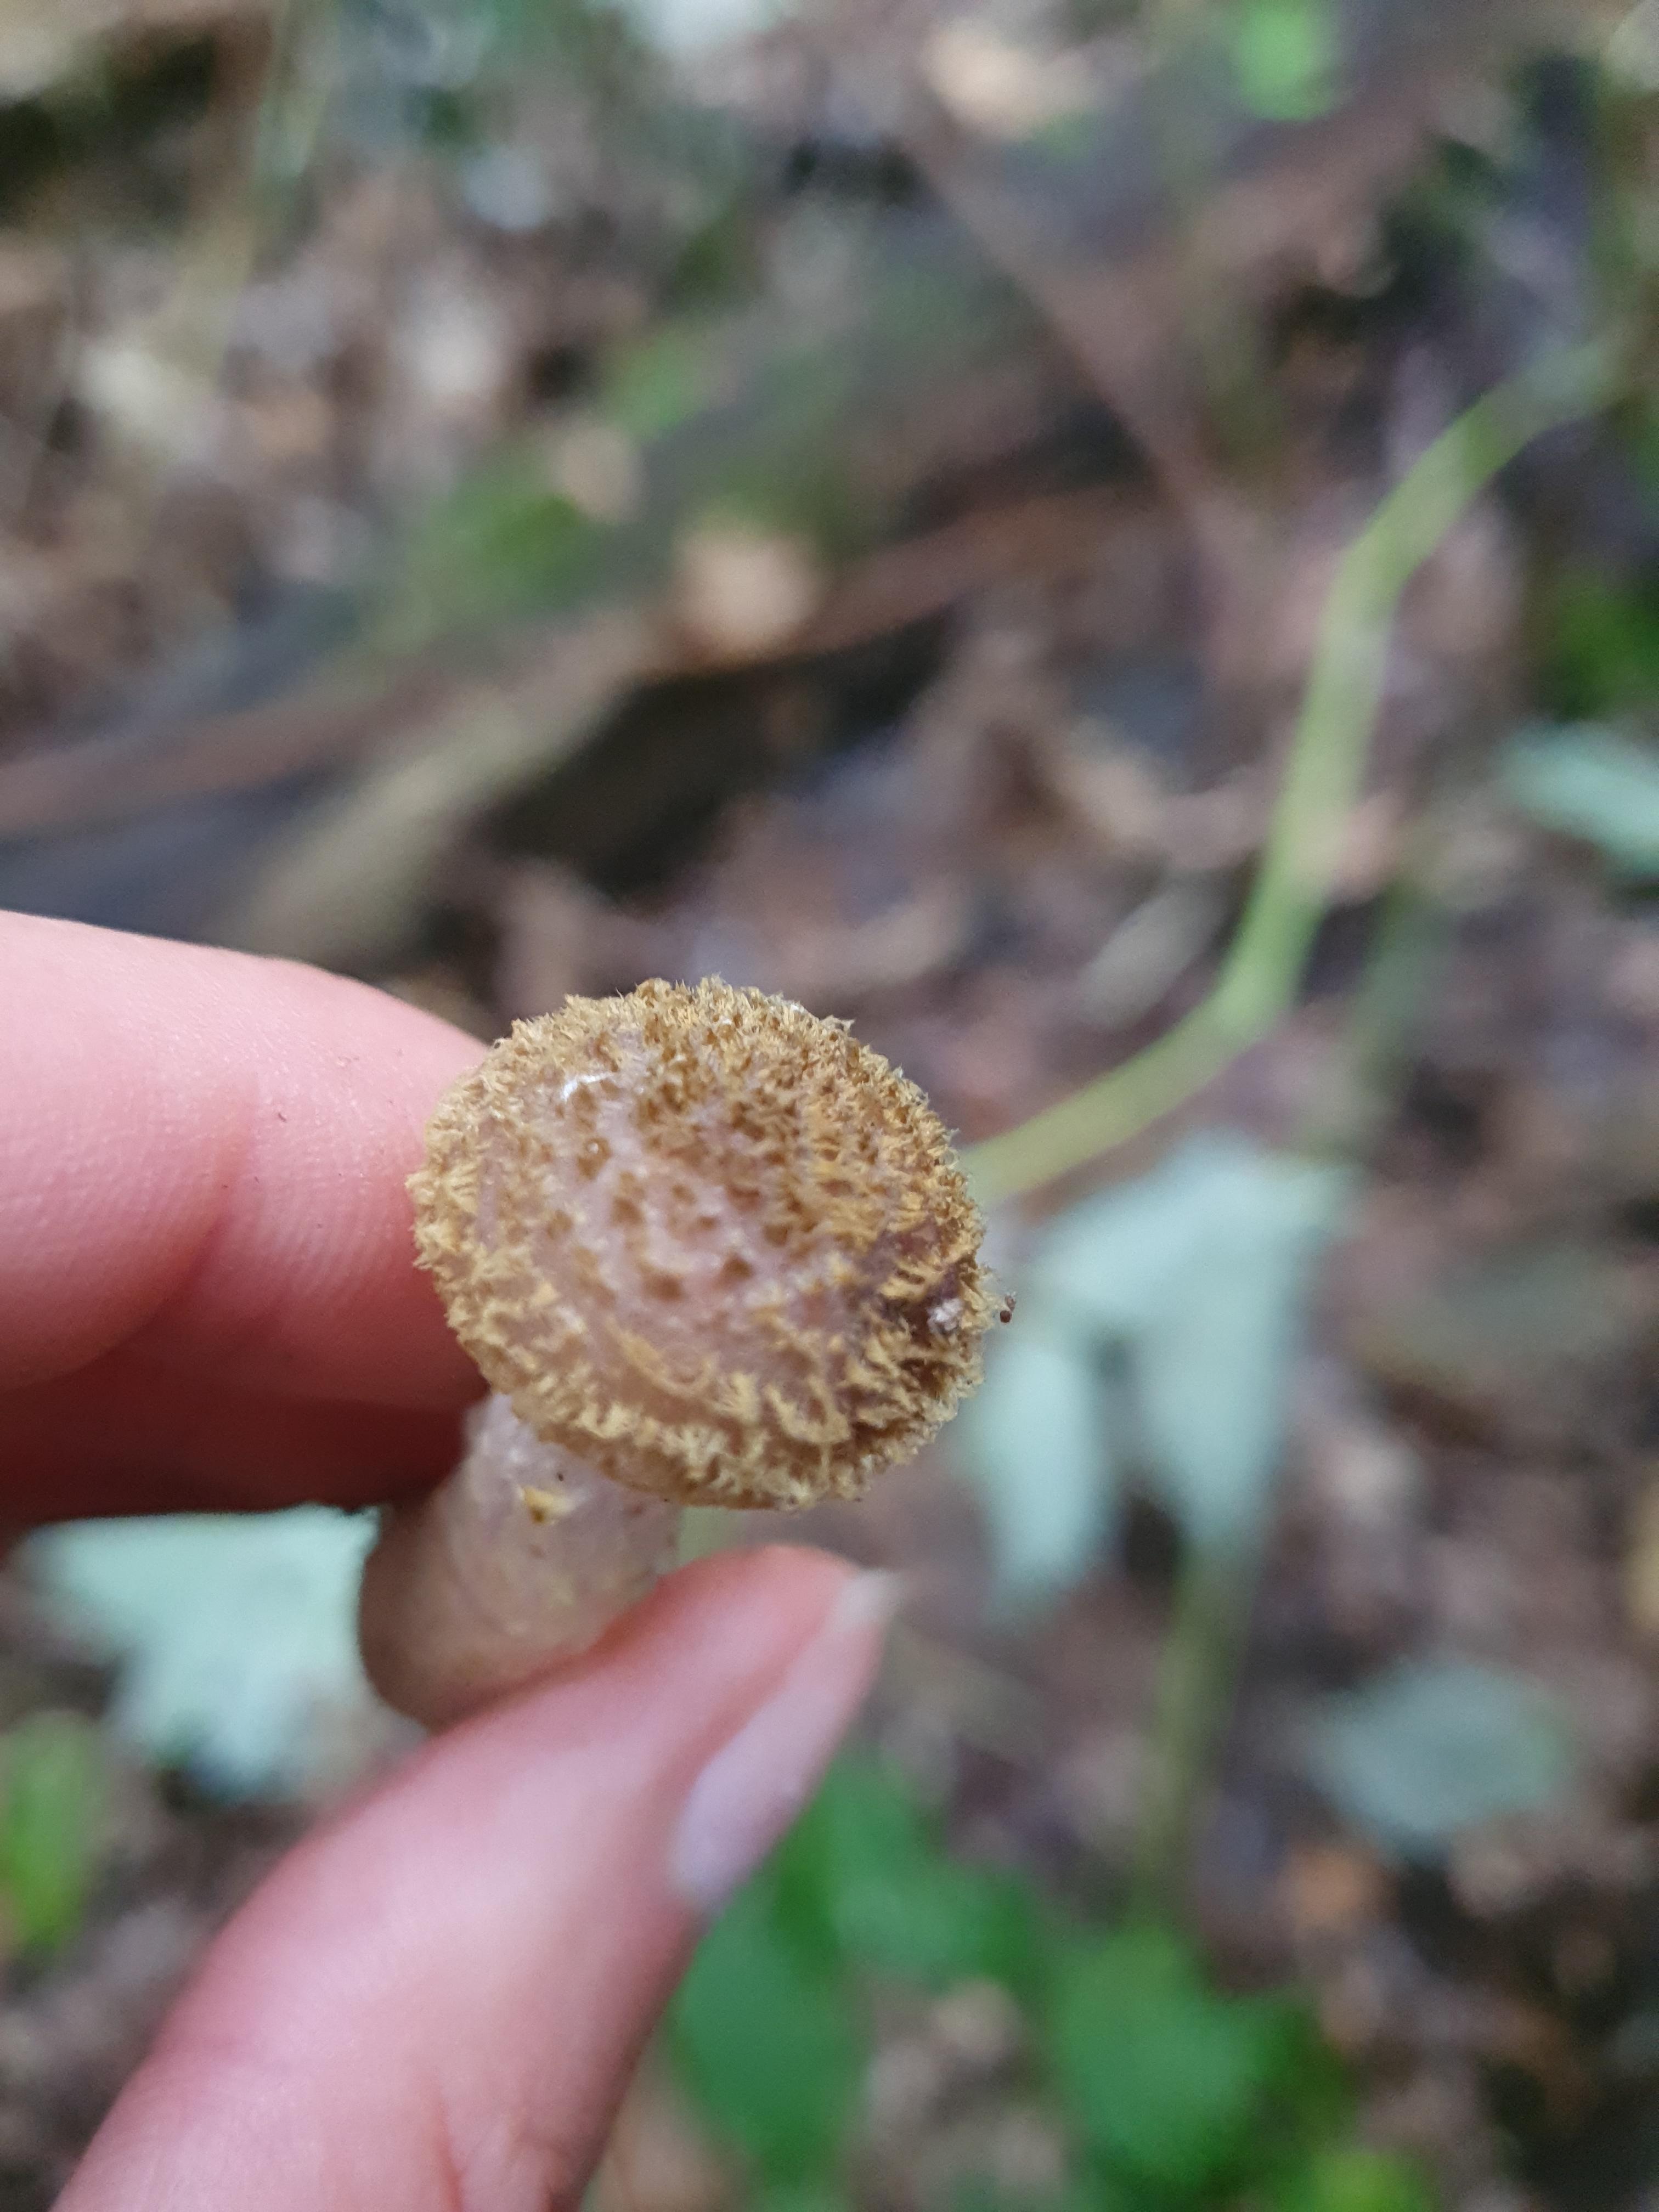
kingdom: Fungi
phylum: Basidiomycota
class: Agaricomycetes
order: Agaricales
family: Physalacriaceae
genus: Armillaria
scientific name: Armillaria lutea
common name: køllestokket honningsvamp
